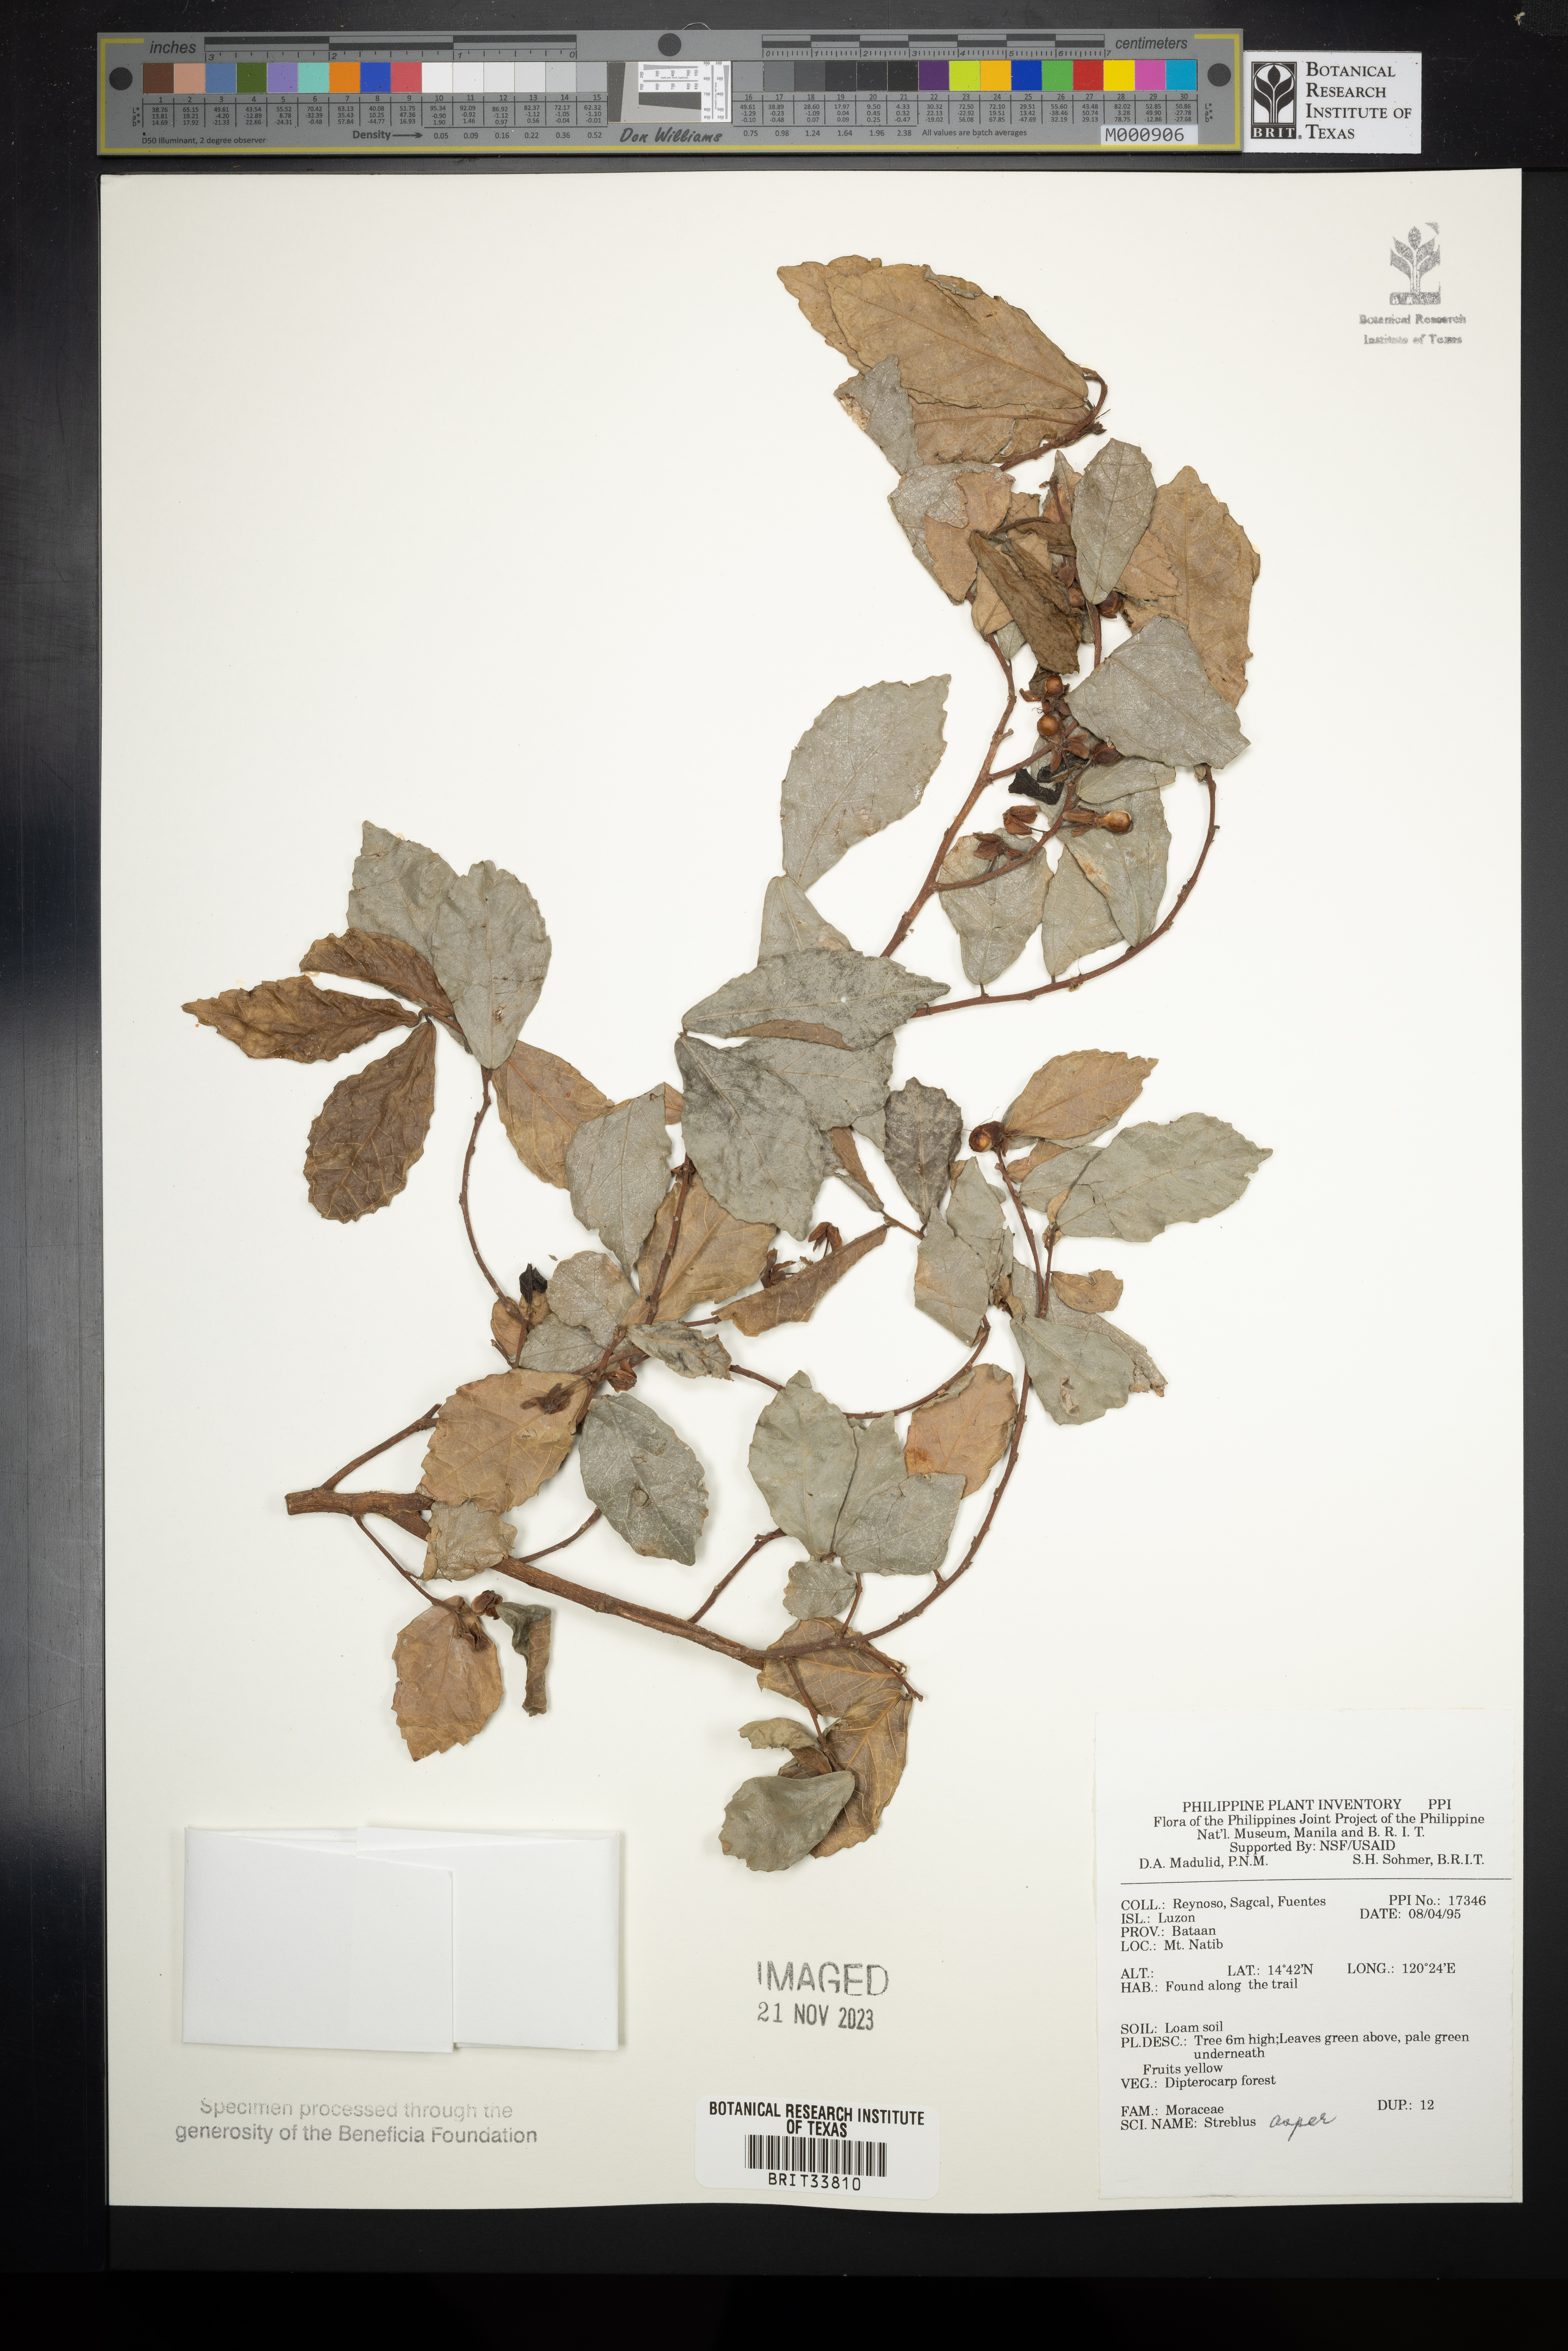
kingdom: Plantae
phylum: Tracheophyta
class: Magnoliopsida
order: Rosales
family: Moraceae
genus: Streblus
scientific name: Streblus asper
